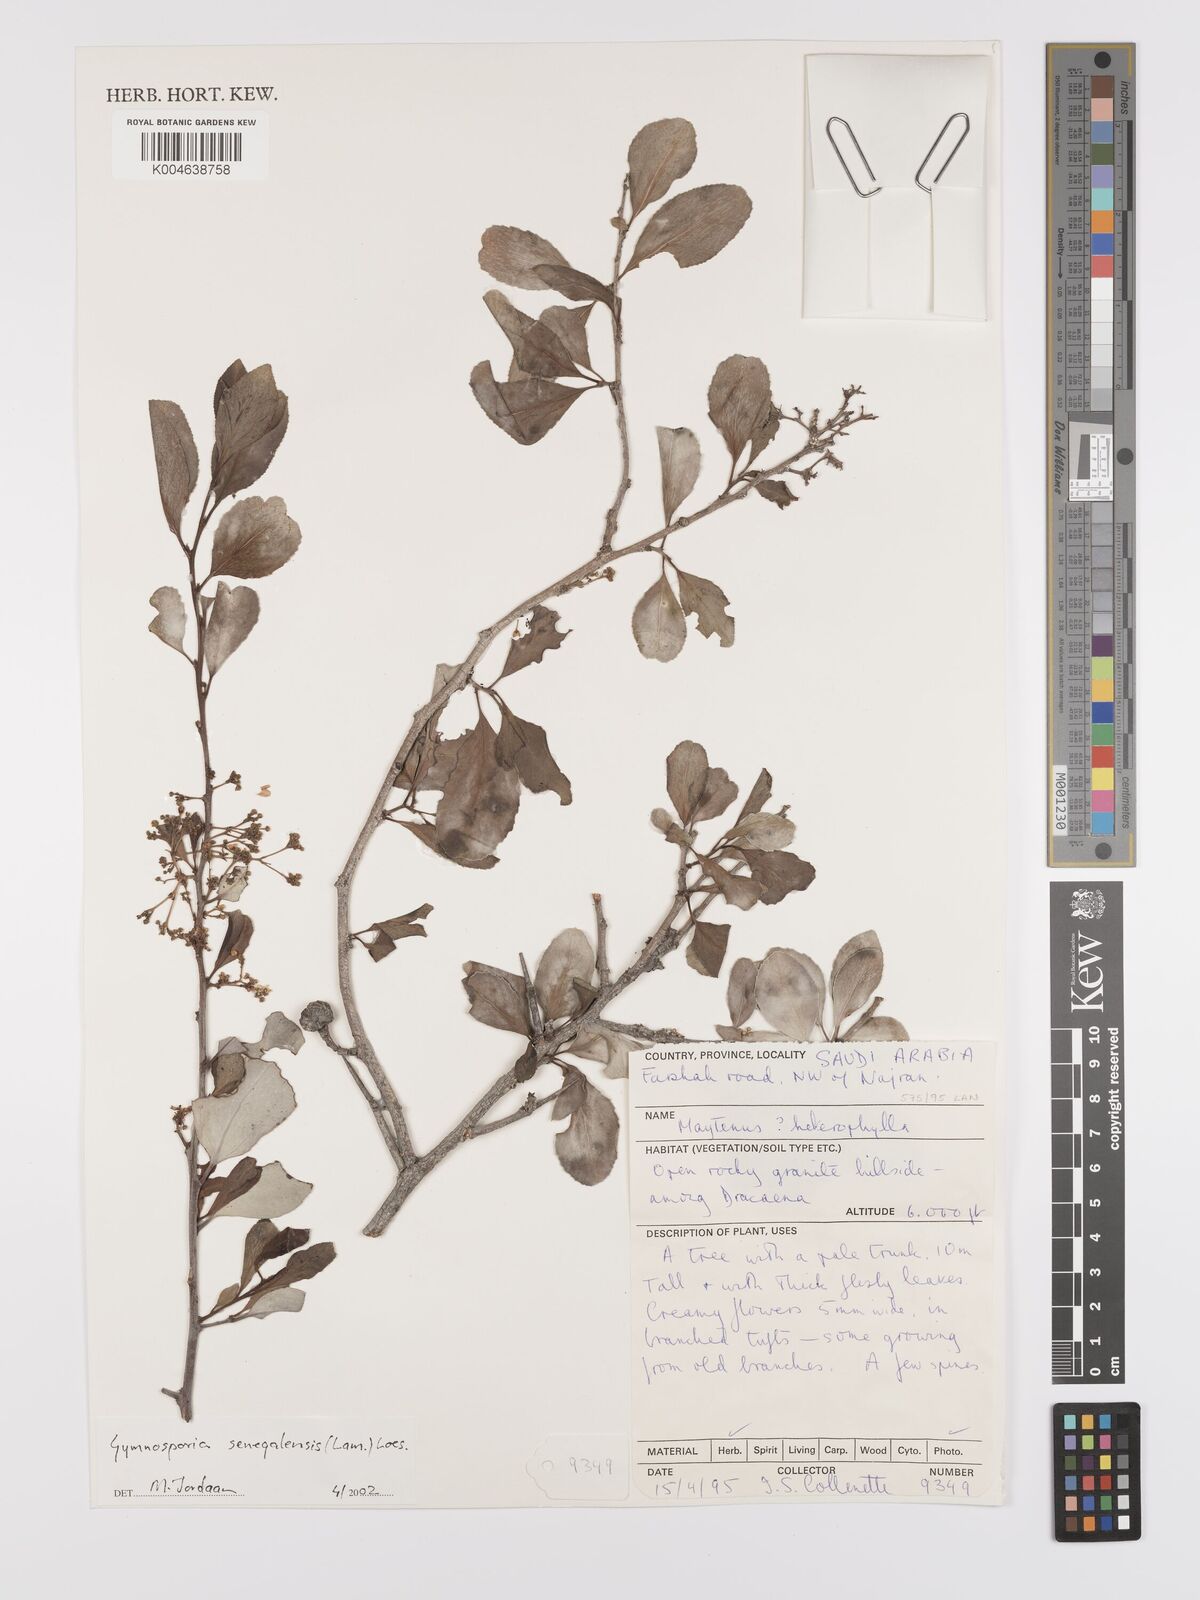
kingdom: Plantae
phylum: Tracheophyta
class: Magnoliopsida
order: Celastrales
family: Celastraceae
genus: Gymnosporia
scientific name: Gymnosporia senegalensis
